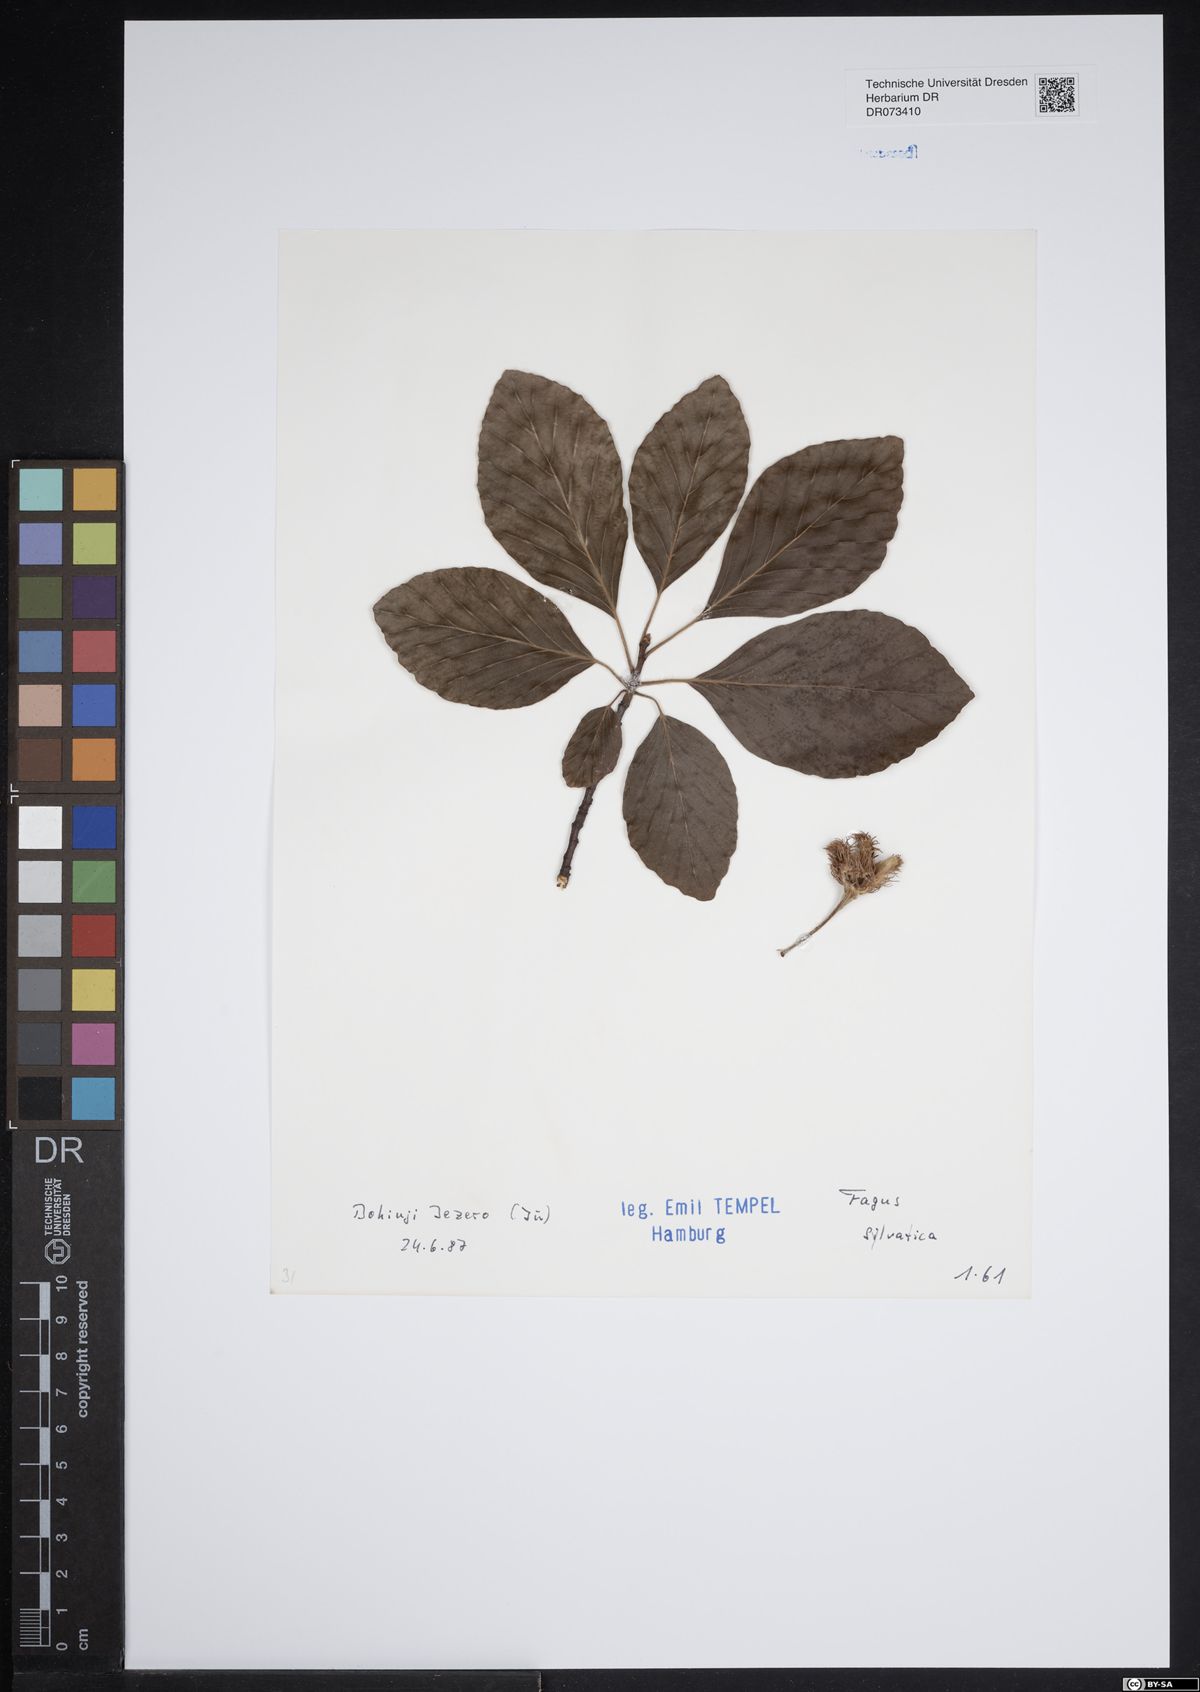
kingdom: Plantae
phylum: Tracheophyta
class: Magnoliopsida
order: Fagales
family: Fagaceae
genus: Fagus
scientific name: Fagus sylvatica
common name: Beech
